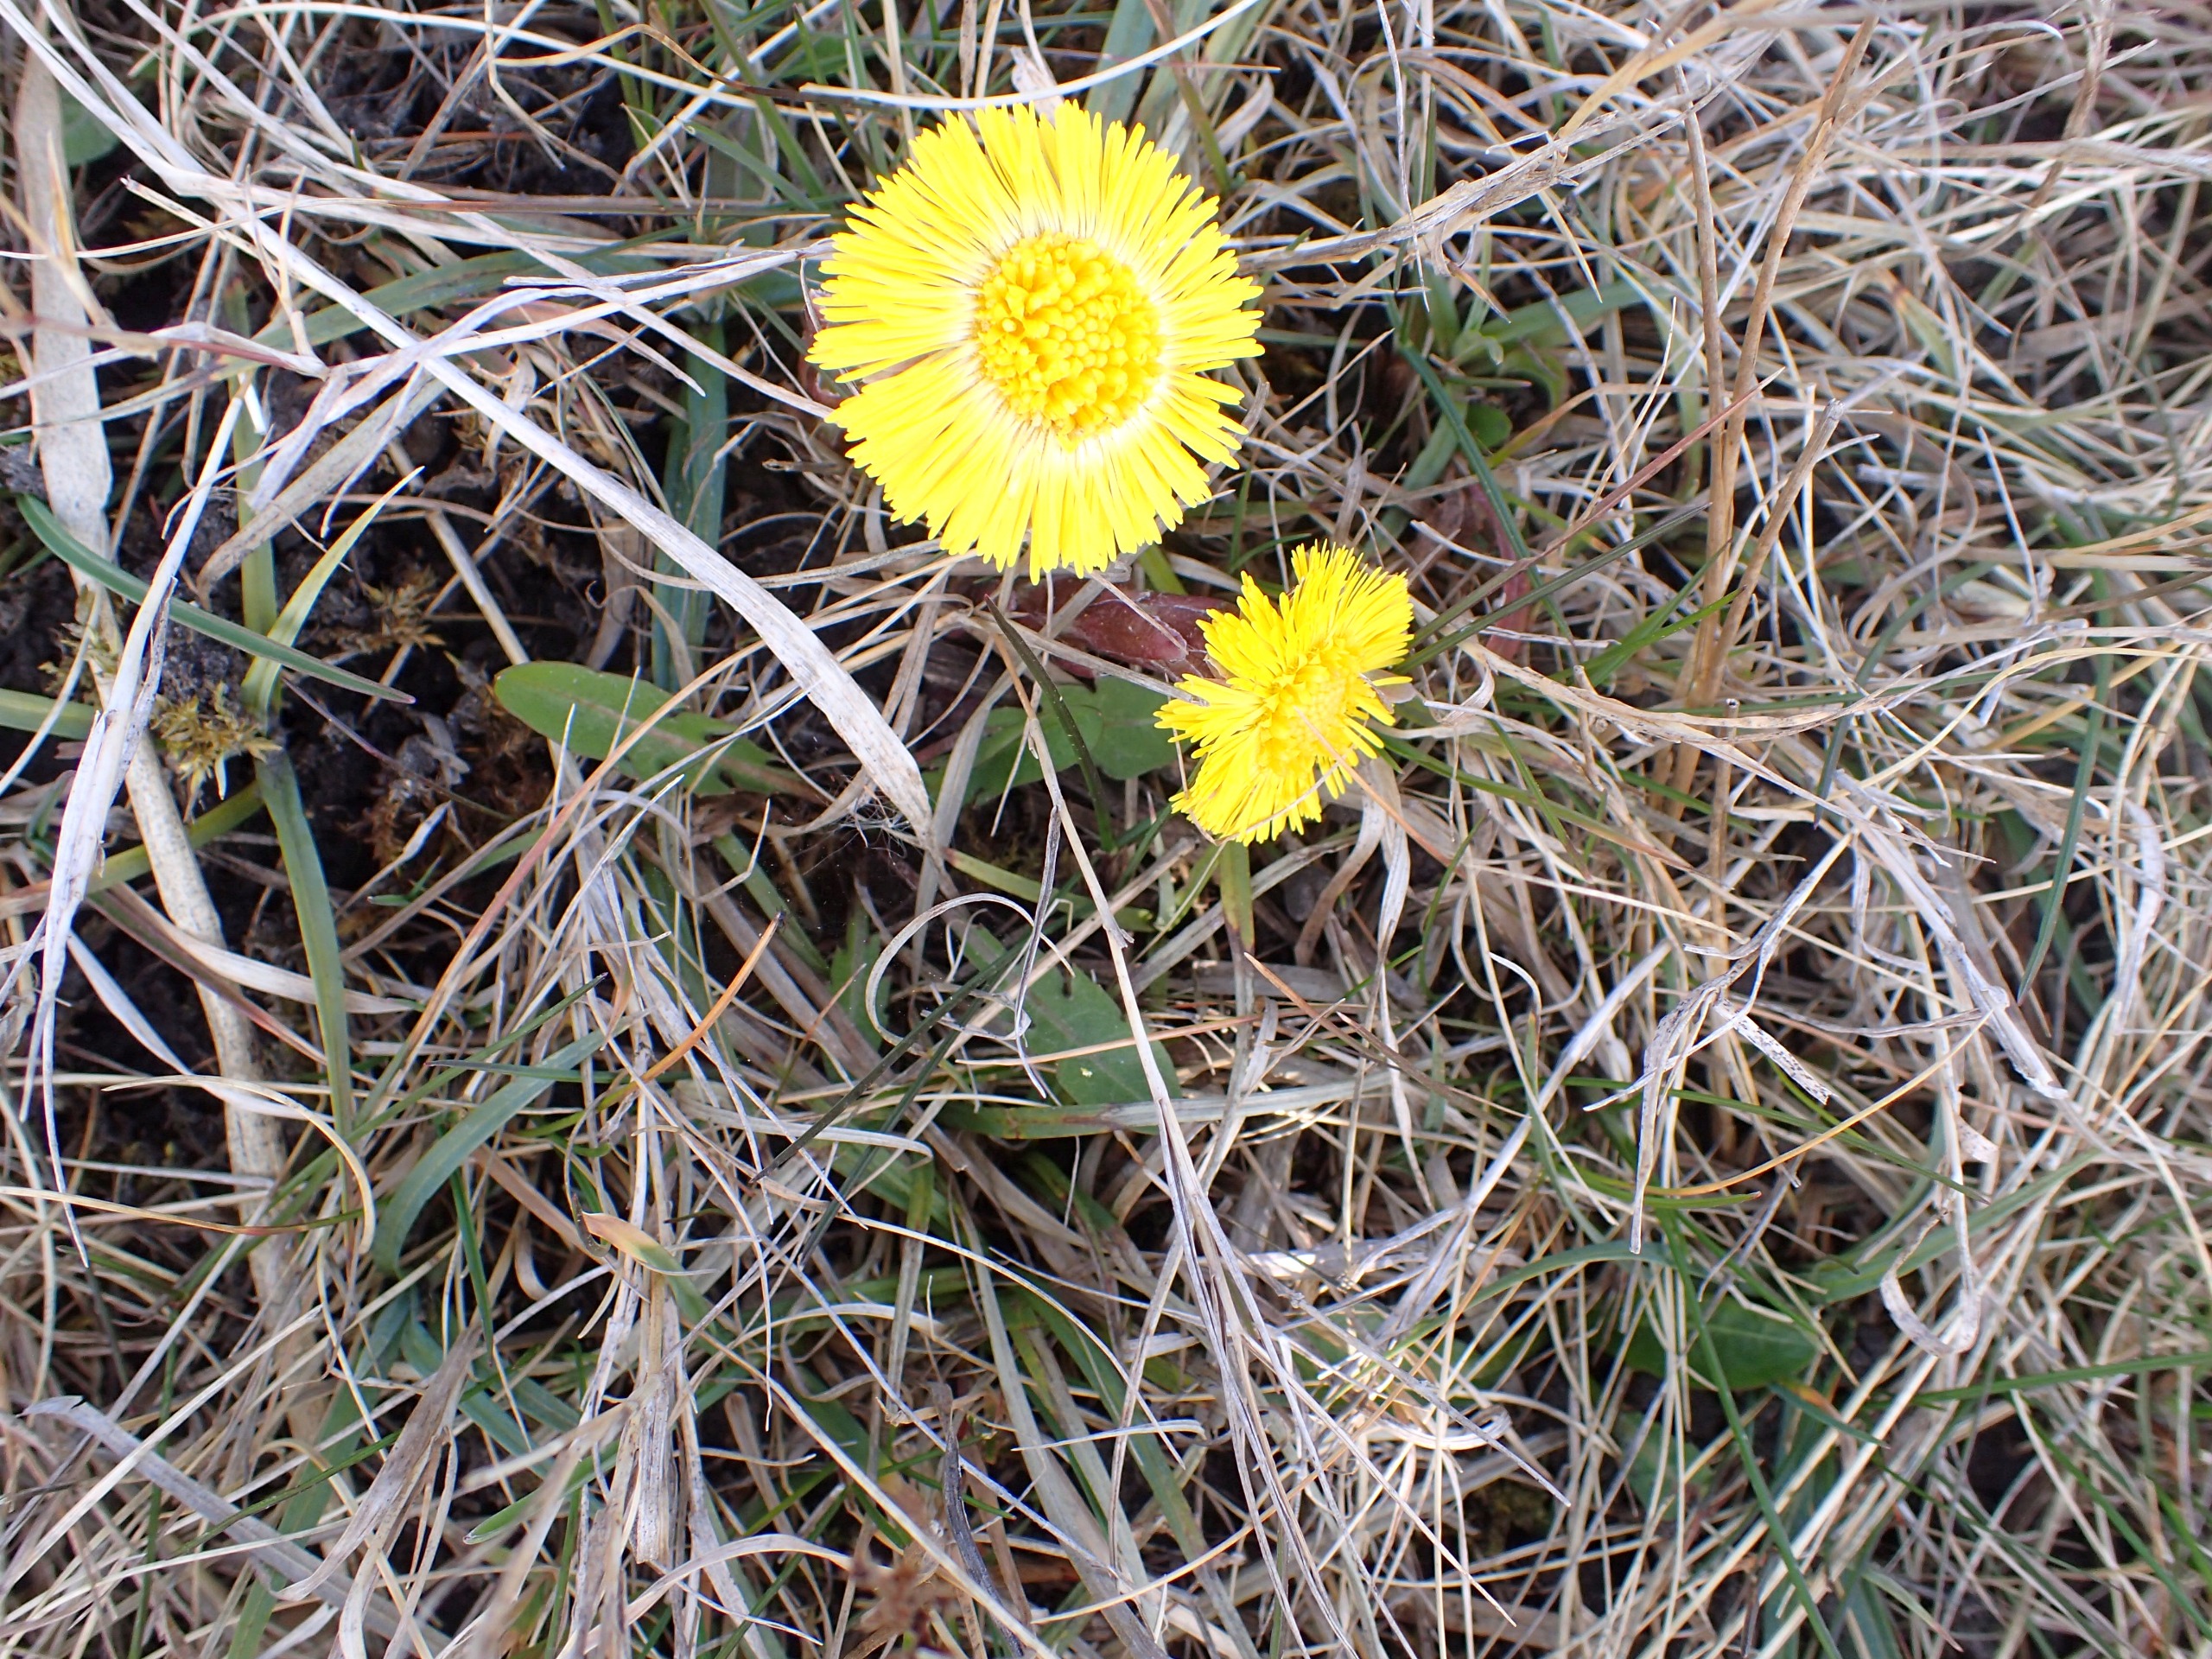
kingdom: Plantae
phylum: Tracheophyta
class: Magnoliopsida
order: Asterales
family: Asteraceae
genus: Tussilago
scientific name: Tussilago farfara
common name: Følfod
